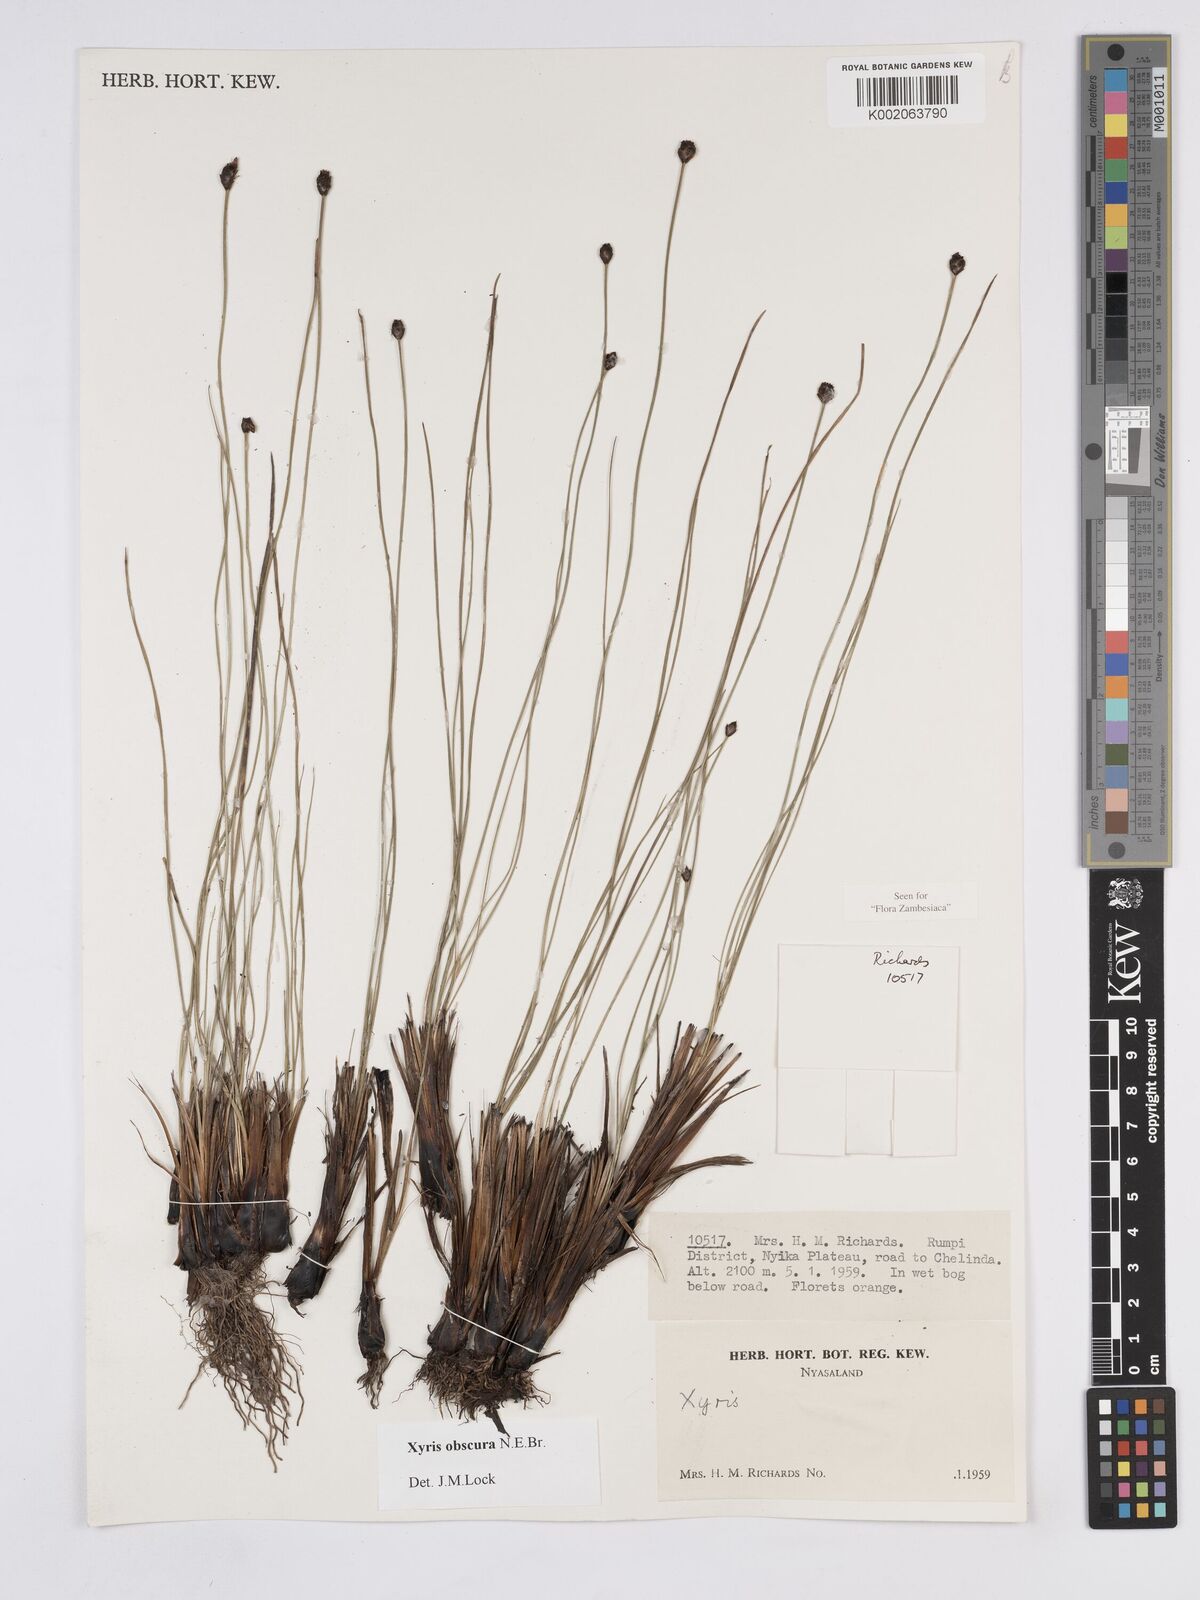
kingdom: Plantae
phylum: Tracheophyta
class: Liliopsida
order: Poales
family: Xyridaceae
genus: Xyris
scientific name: Xyris obscura
